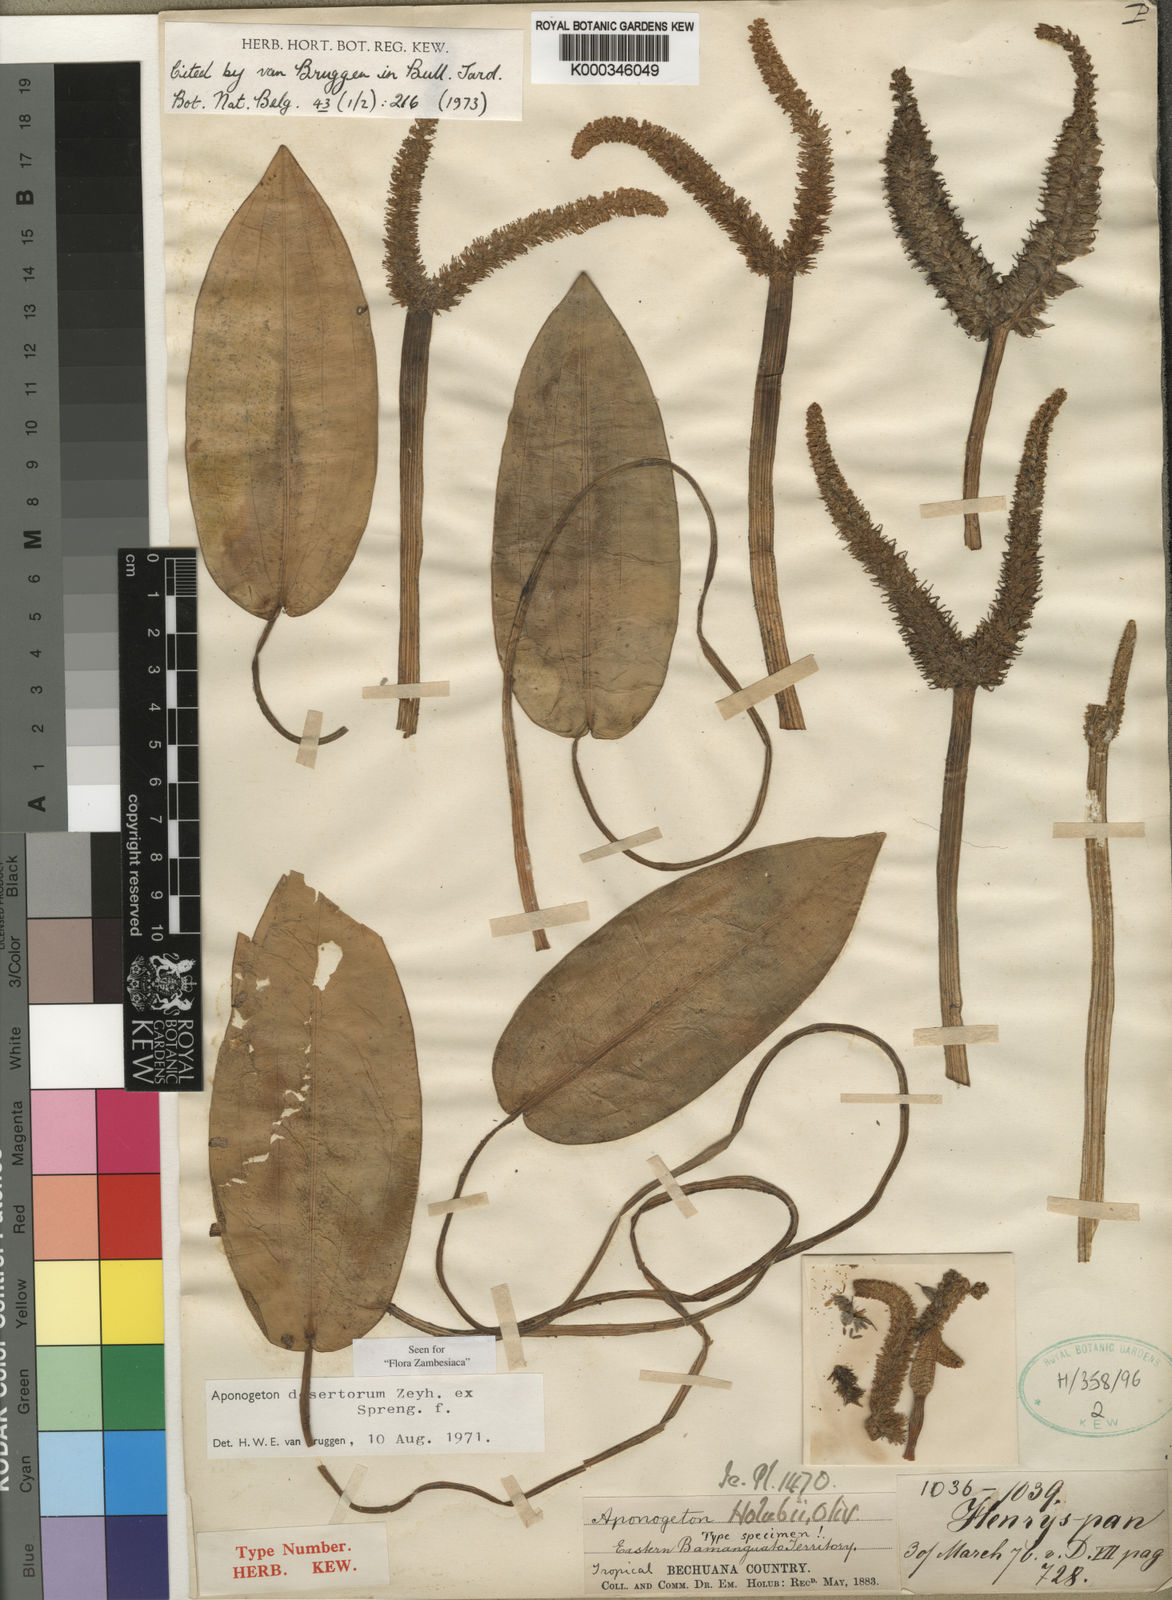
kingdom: Plantae
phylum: Tracheophyta
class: Liliopsida
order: Alismatales
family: Aponogetonaceae
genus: Aponogeton
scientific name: Aponogeton desertorum
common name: Dog-with-two-tails
